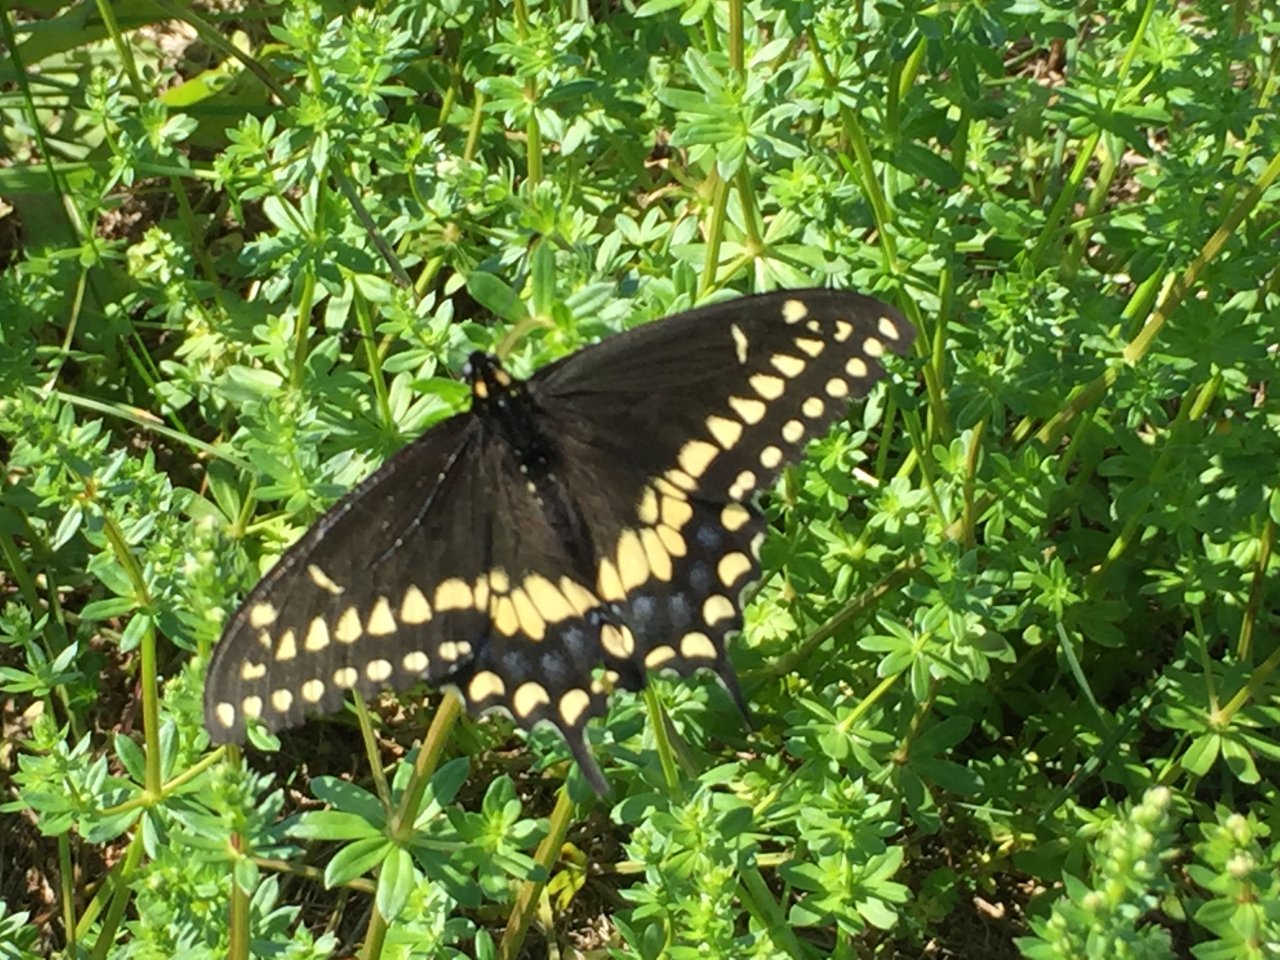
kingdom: Animalia
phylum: Arthropoda
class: Insecta
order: Lepidoptera
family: Papilionidae
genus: Papilio
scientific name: Papilio polyxenes
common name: Black Swallowtail
